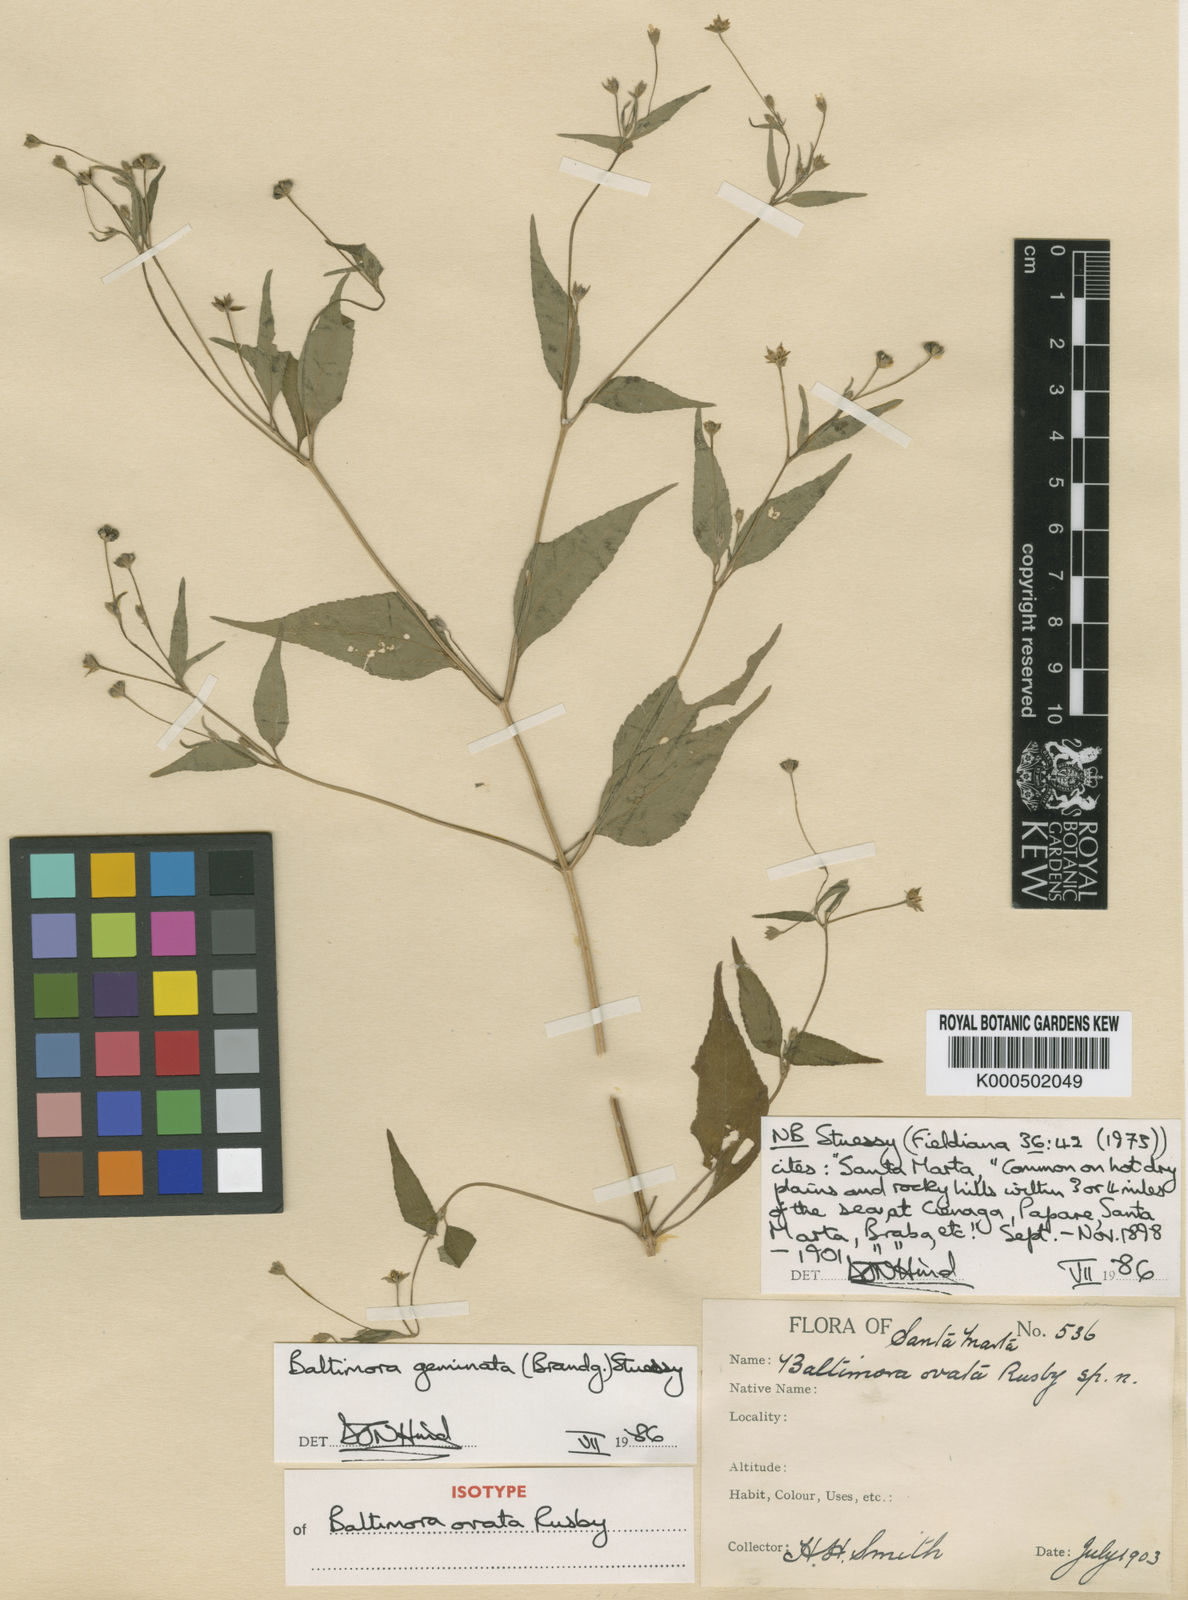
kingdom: Plantae
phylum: Tracheophyta
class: Magnoliopsida
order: Asterales
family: Asteraceae
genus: Baltimora
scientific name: Baltimora geminata
